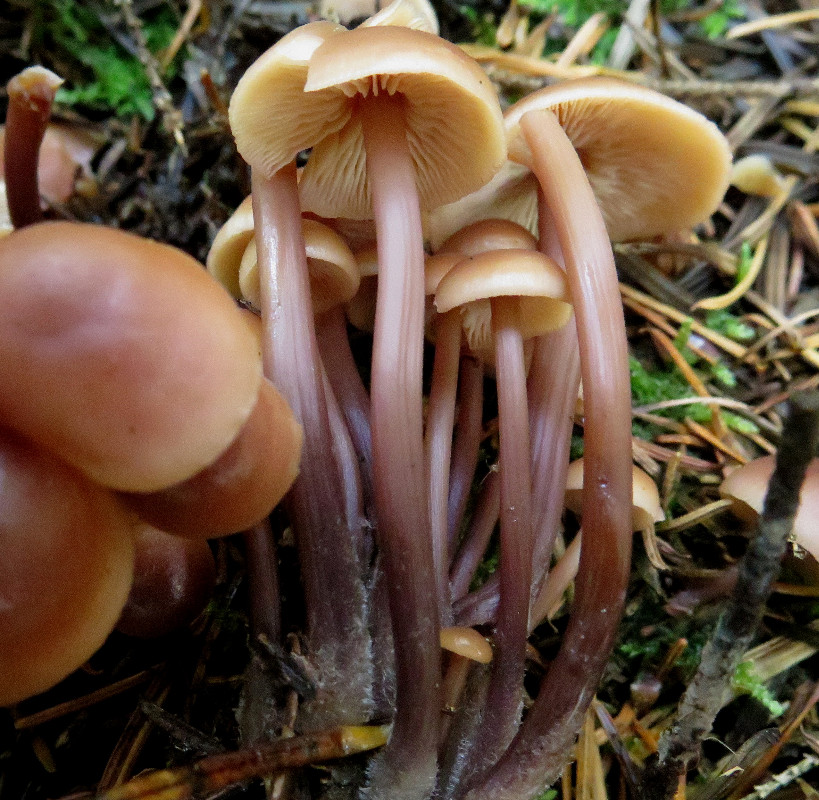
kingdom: Fungi
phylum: Basidiomycota
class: Agaricomycetes
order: Agaricales
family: Omphalotaceae
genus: Connopus
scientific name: Connopus acervatus
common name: tue-fladhat
